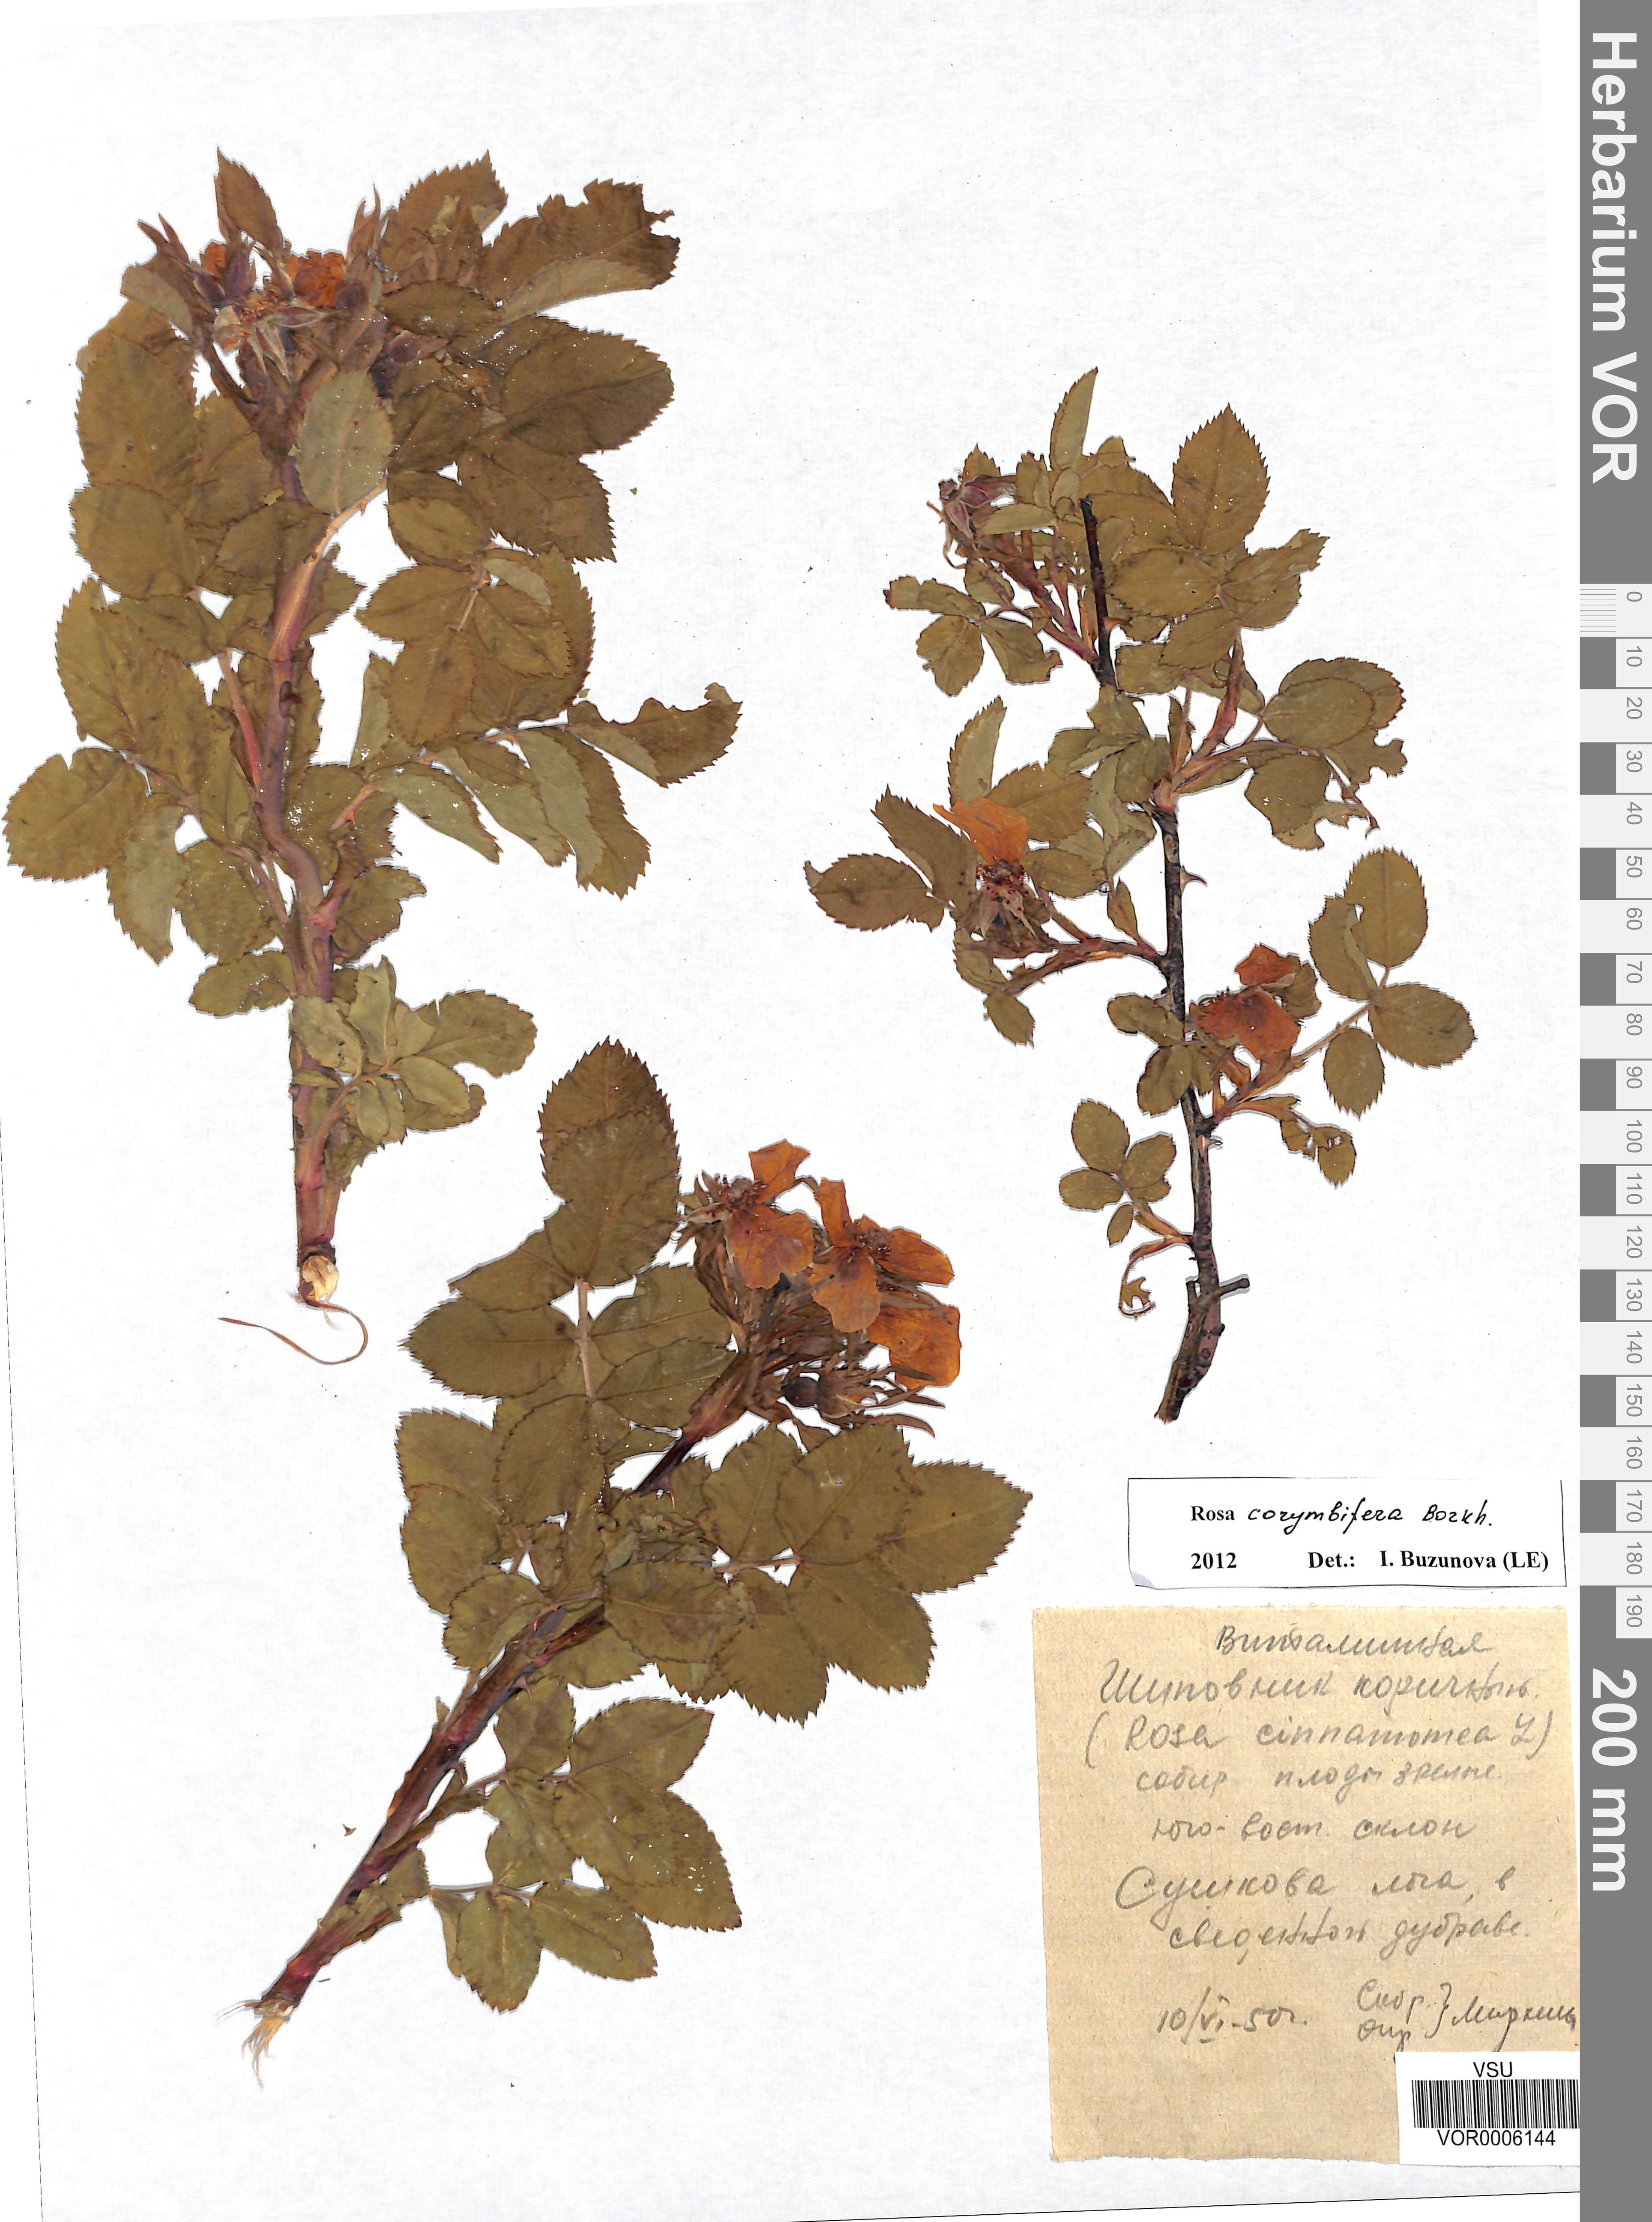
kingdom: Plantae
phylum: Tracheophyta
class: Magnoliopsida
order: Rosales
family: Rosaceae
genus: Rosa
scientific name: Rosa corymbifera
